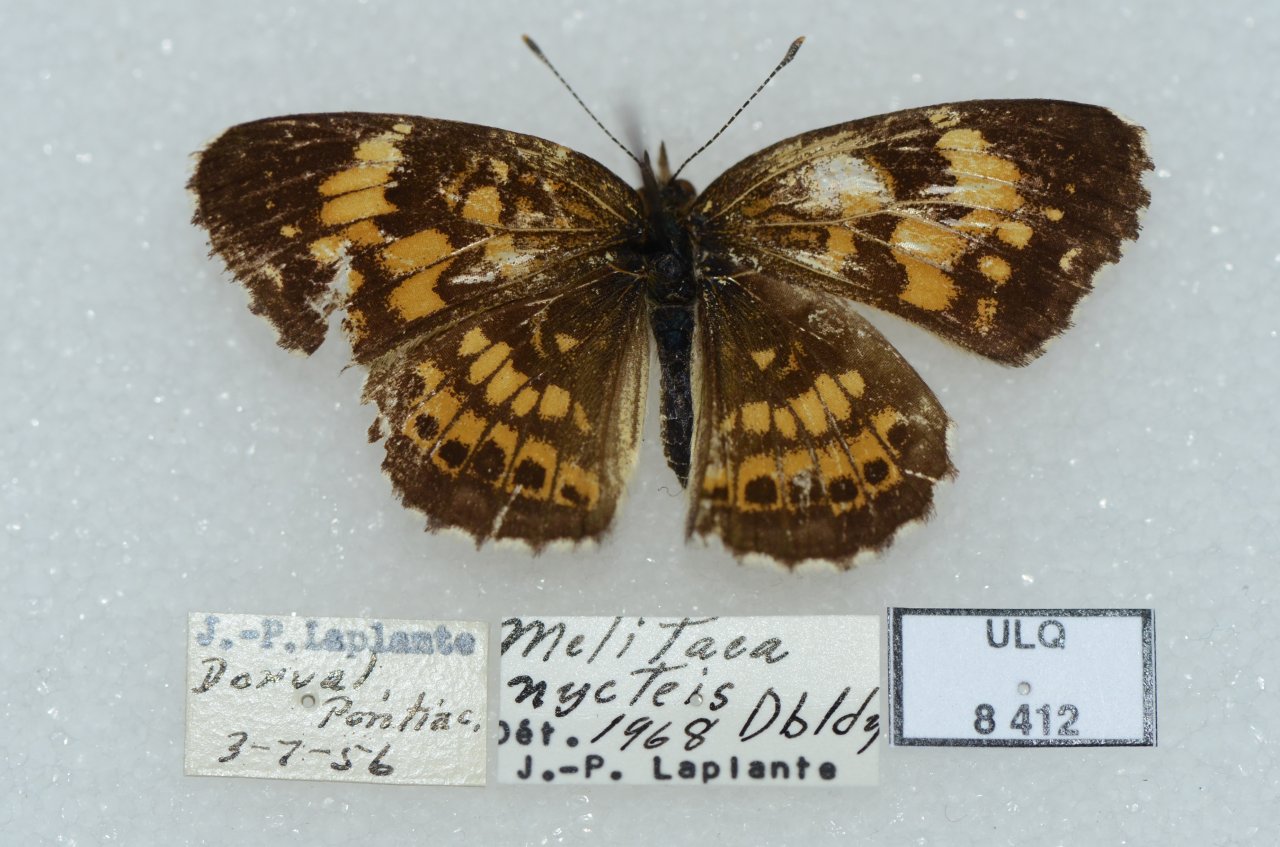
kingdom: Animalia
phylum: Arthropoda
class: Insecta
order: Lepidoptera
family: Nymphalidae
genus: Chlosyne
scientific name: Chlosyne nycteis
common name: Silvery Checkerspot
